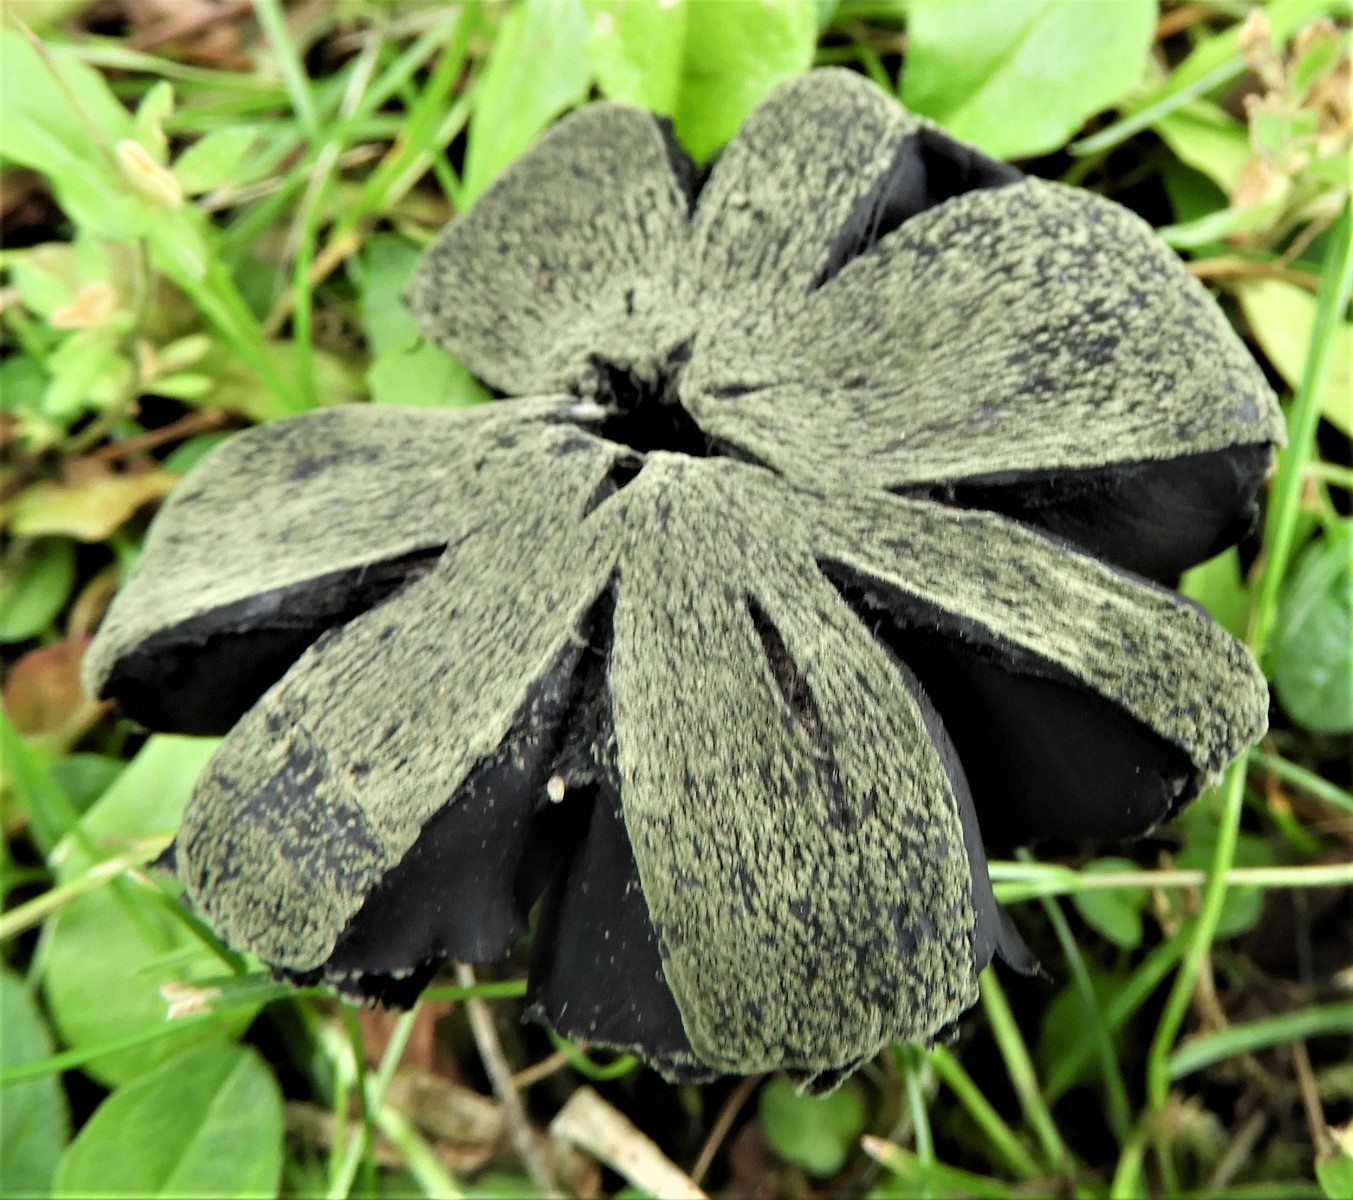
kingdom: Fungi
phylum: Basidiomycota
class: Agaricomycetes
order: Agaricales
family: Hygrophoraceae
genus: Hygrocybe
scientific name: Hygrocybe conica
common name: kegle-vokshat
